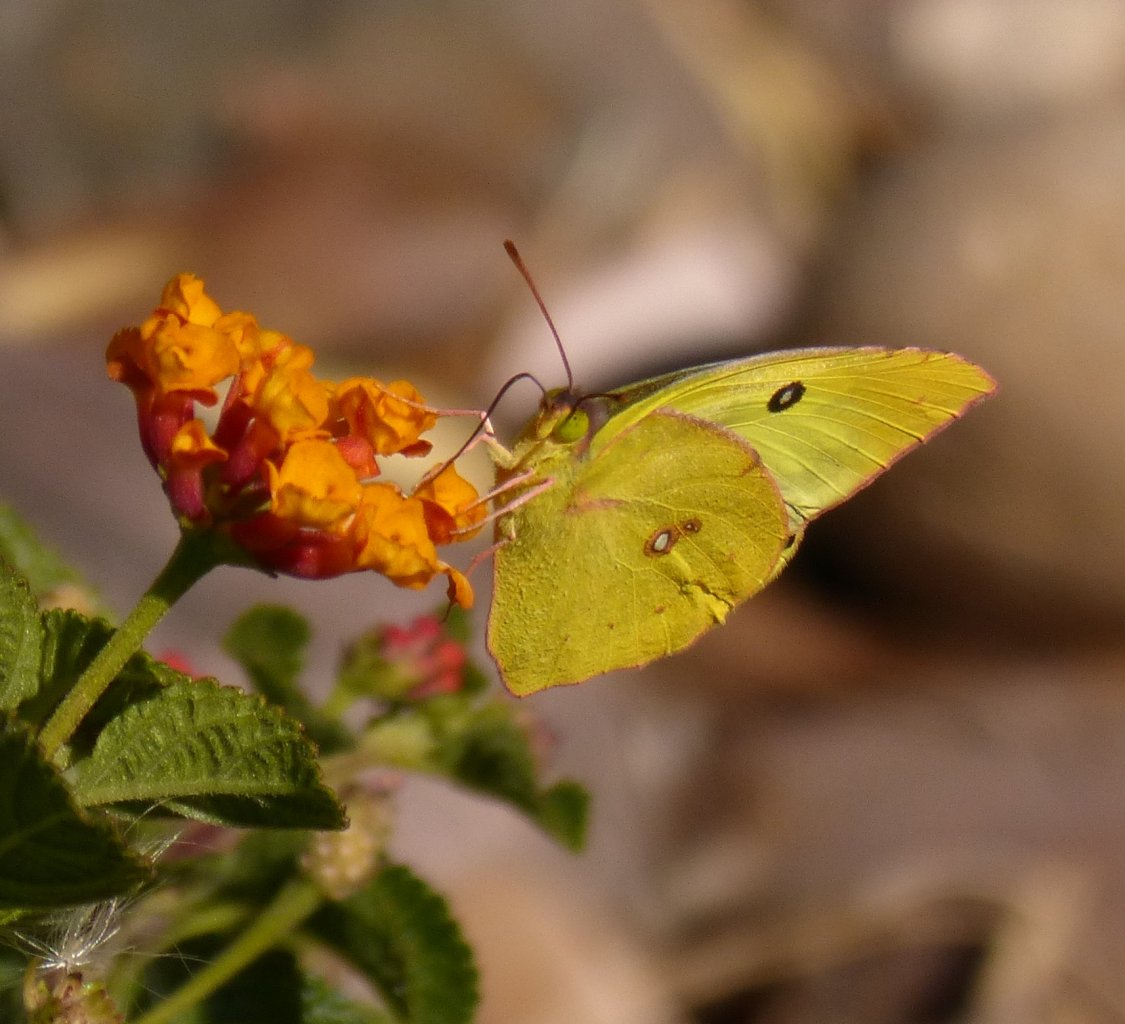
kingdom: Animalia
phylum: Arthropoda
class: Insecta
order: Lepidoptera
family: Pieridae
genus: Zerene
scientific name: Zerene cesonia
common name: Southern Dogface
